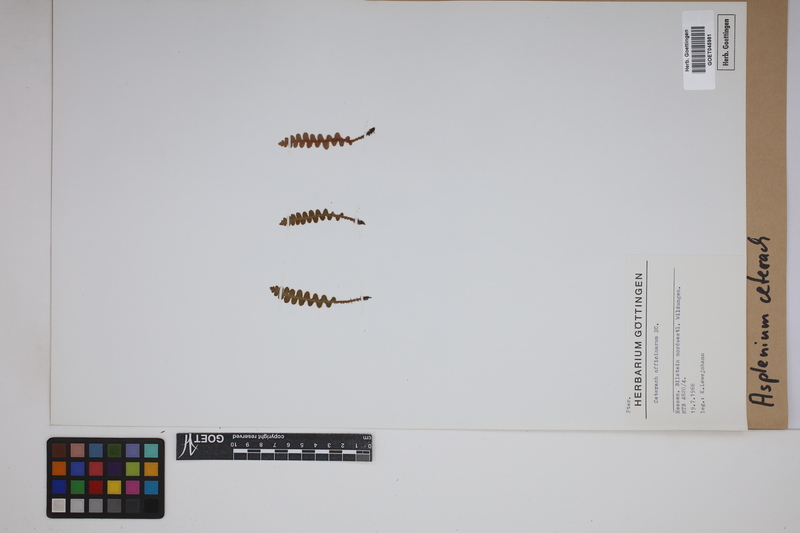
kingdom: Plantae
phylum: Tracheophyta
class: Polypodiopsida
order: Polypodiales
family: Aspleniaceae
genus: Asplenium
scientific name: Asplenium ceterach
